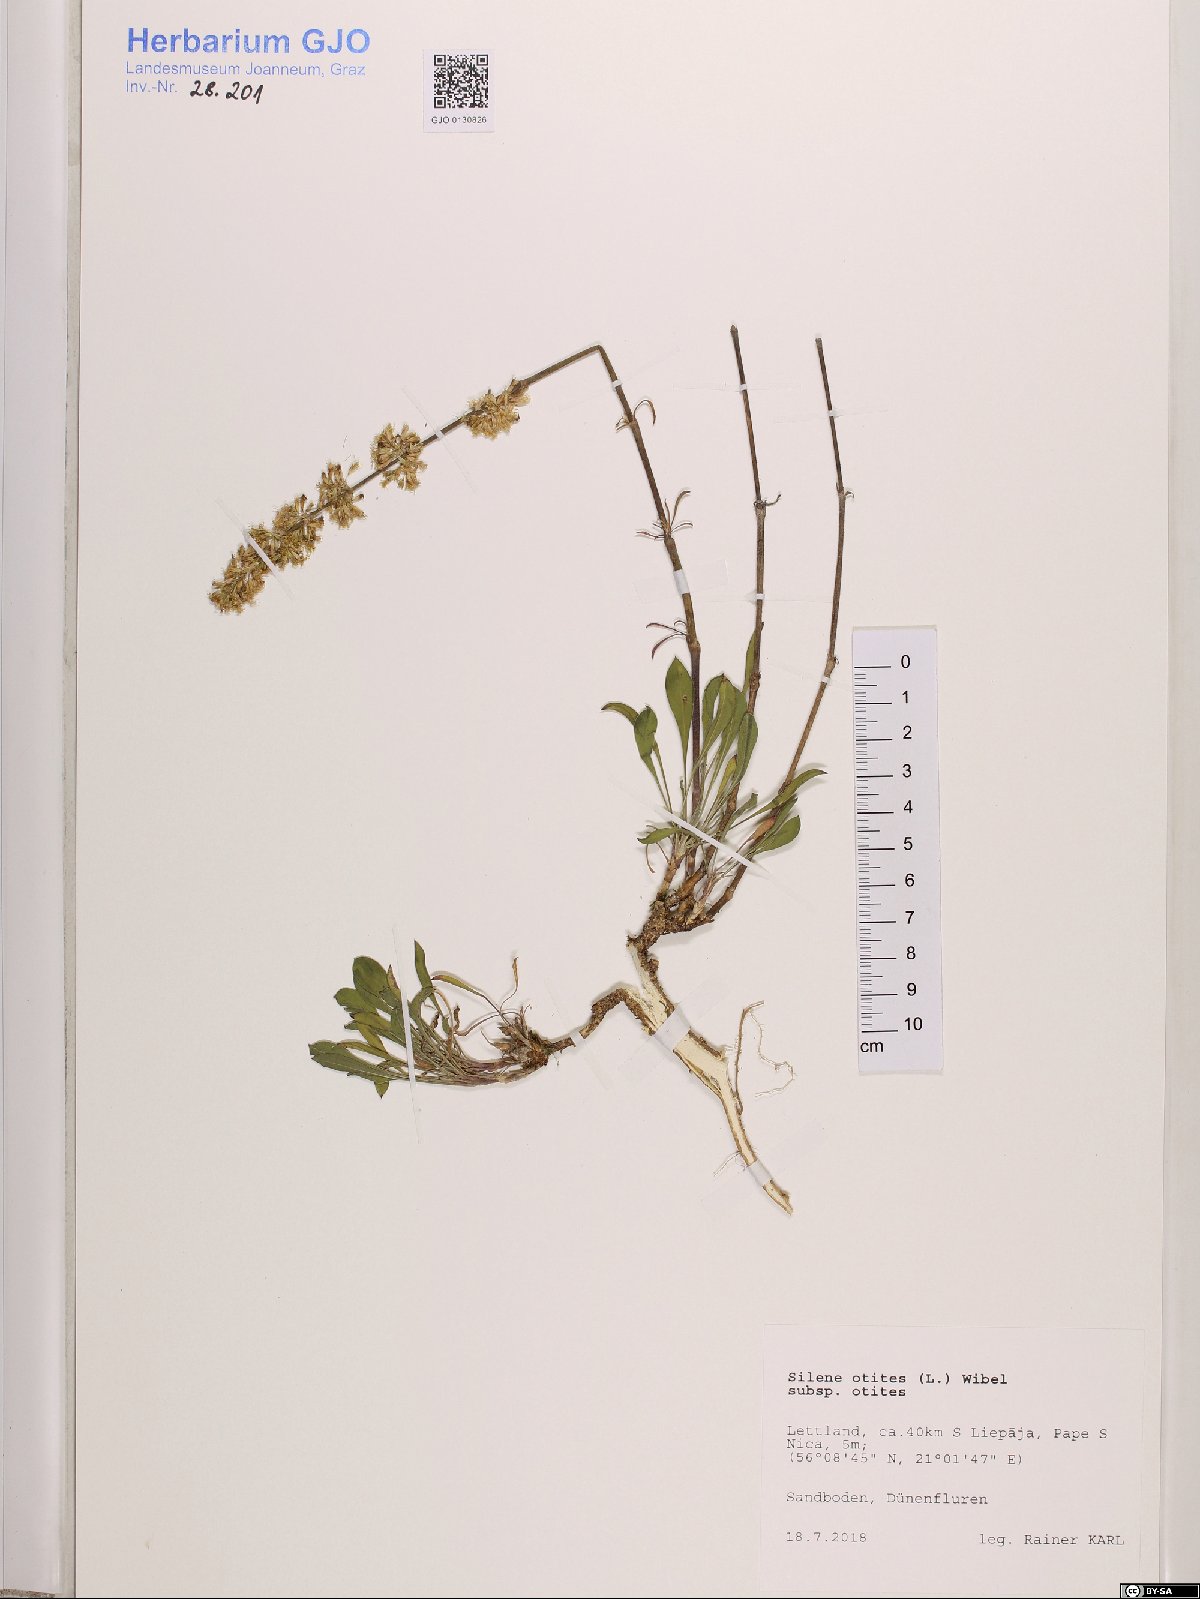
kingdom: Plantae
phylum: Tracheophyta
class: Magnoliopsida
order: Caryophyllales
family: Caryophyllaceae
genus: Silene
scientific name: Silene otites
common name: Spanish catchfly
